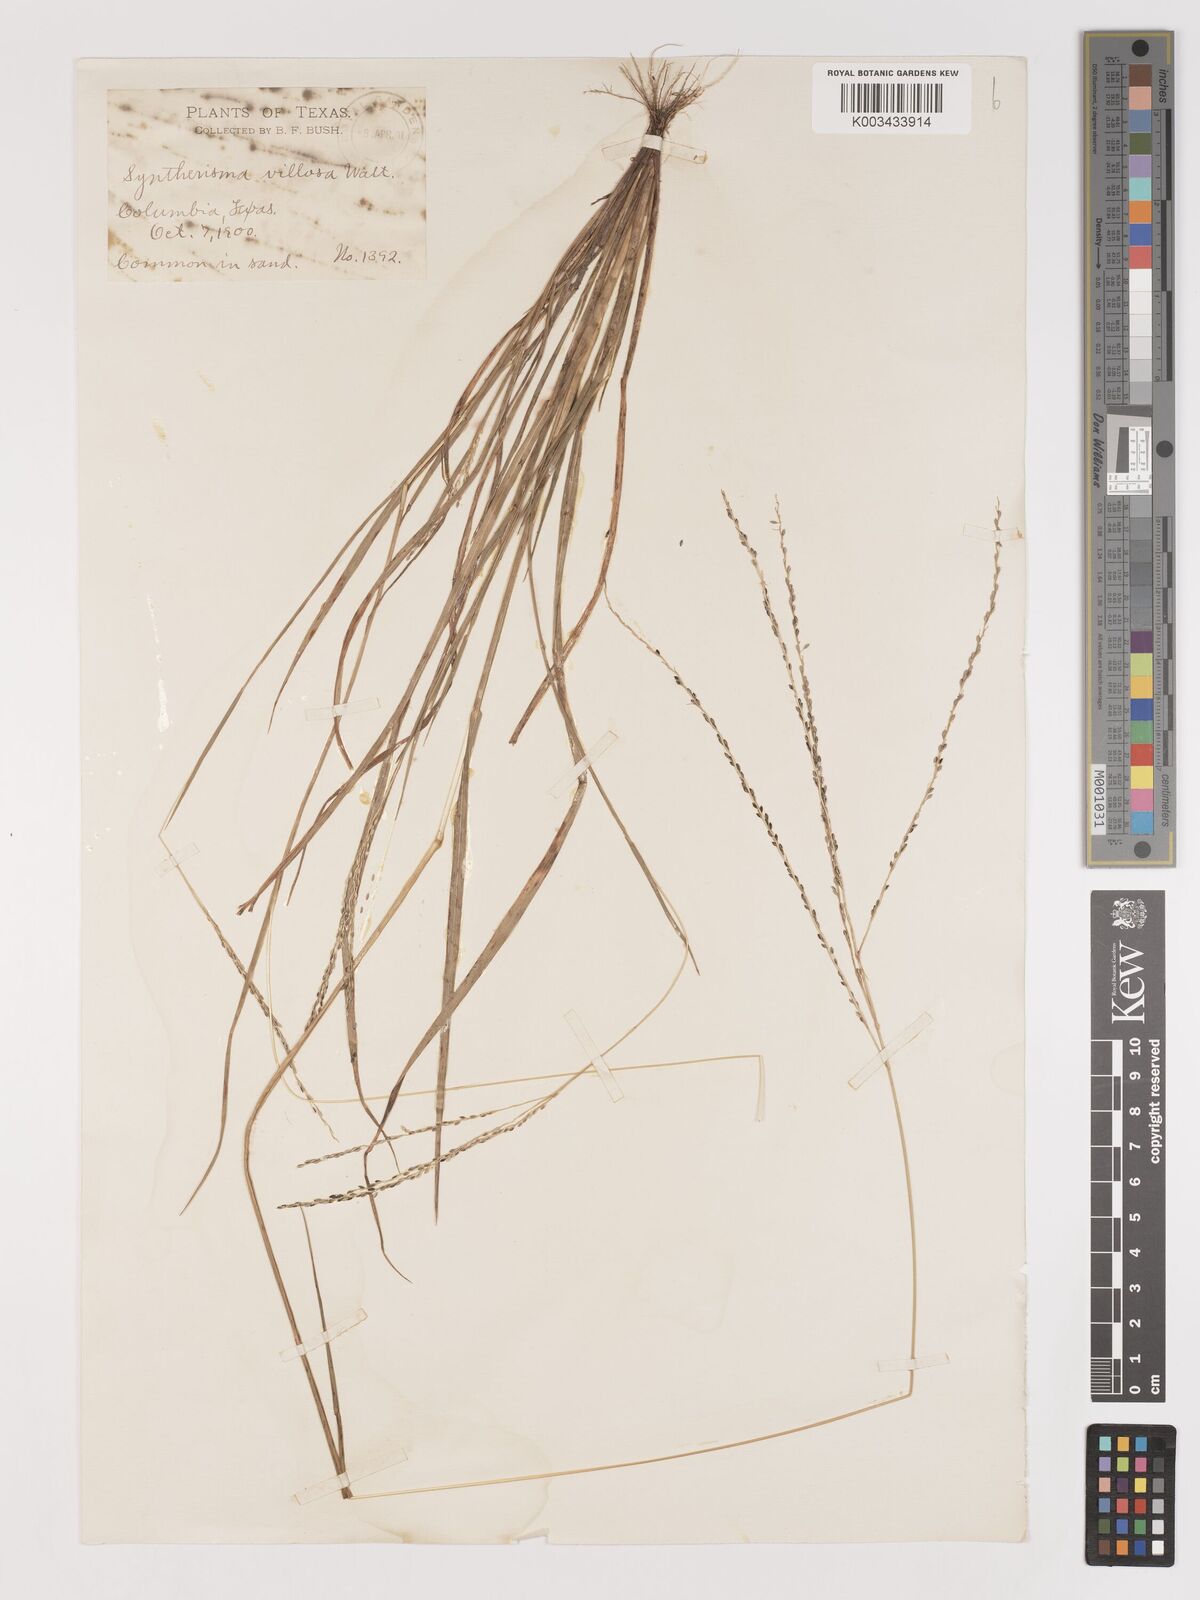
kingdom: Plantae
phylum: Tracheophyta
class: Liliopsida
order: Poales
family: Poaceae
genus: Digitaria
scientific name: Digitaria villosa
